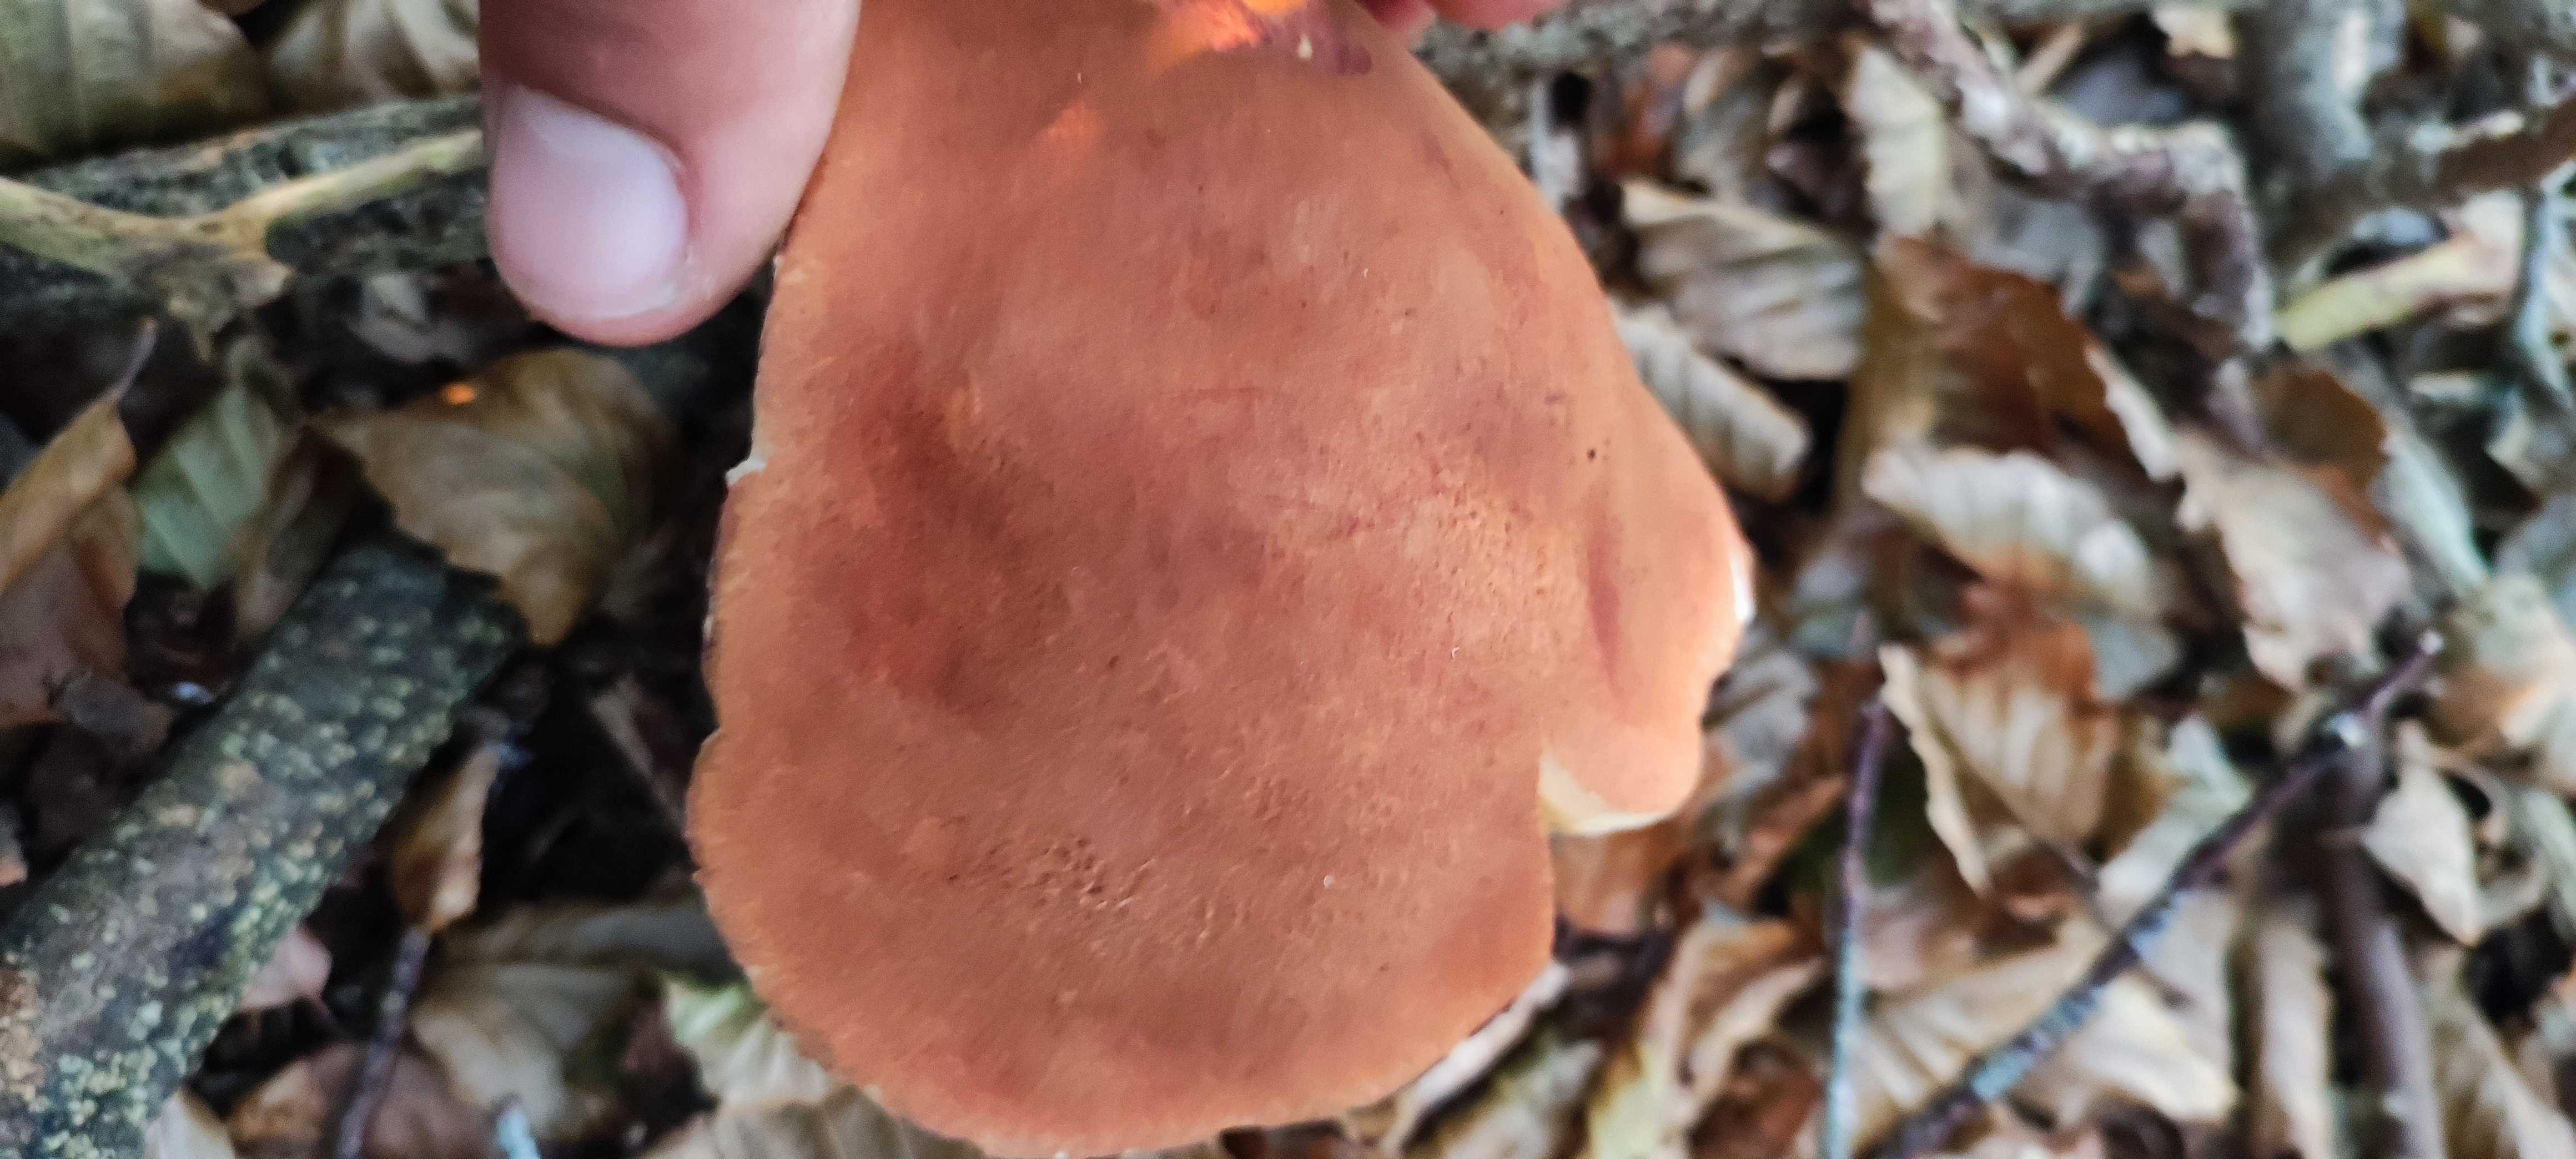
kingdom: Fungi
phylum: Basidiomycota
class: Agaricomycetes
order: Boletales
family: Boletaceae
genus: Leccinum
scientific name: Leccinum aurantiacum
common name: rustrød skælrørhat
